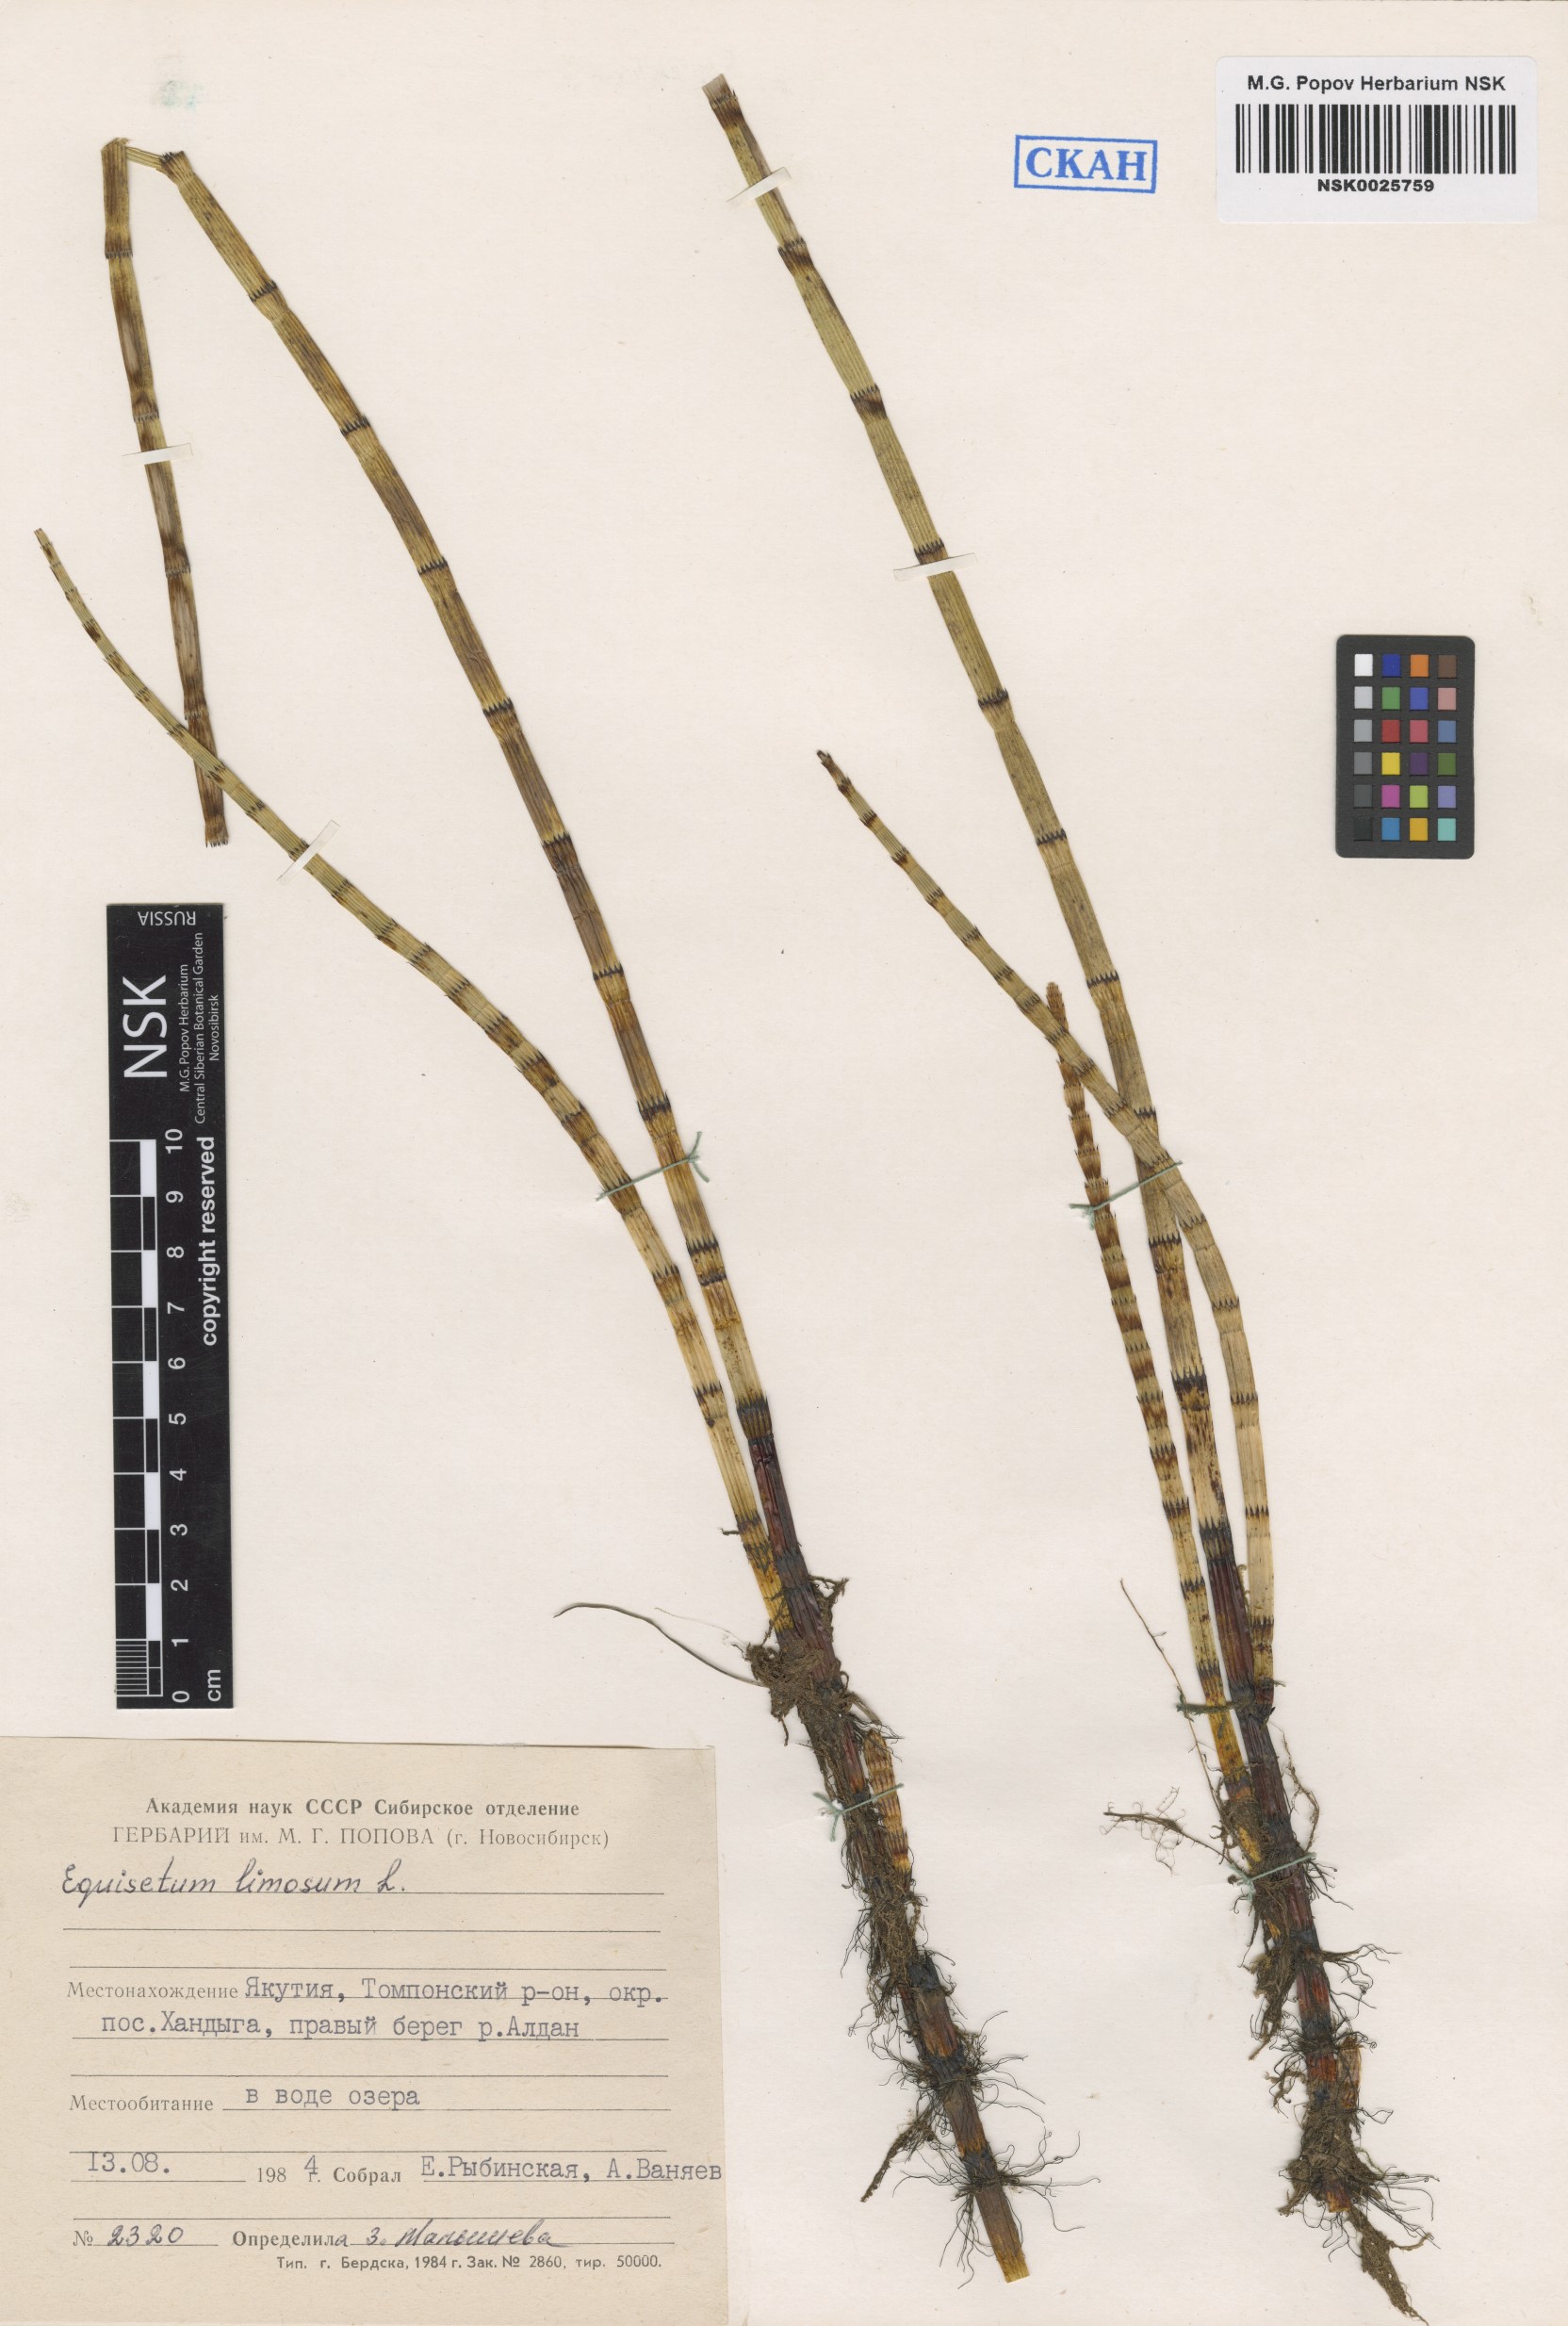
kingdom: Plantae
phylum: Tracheophyta
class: Polypodiopsida
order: Equisetales
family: Equisetaceae
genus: Equisetum
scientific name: Equisetum fluviatile
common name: Water horsetail
